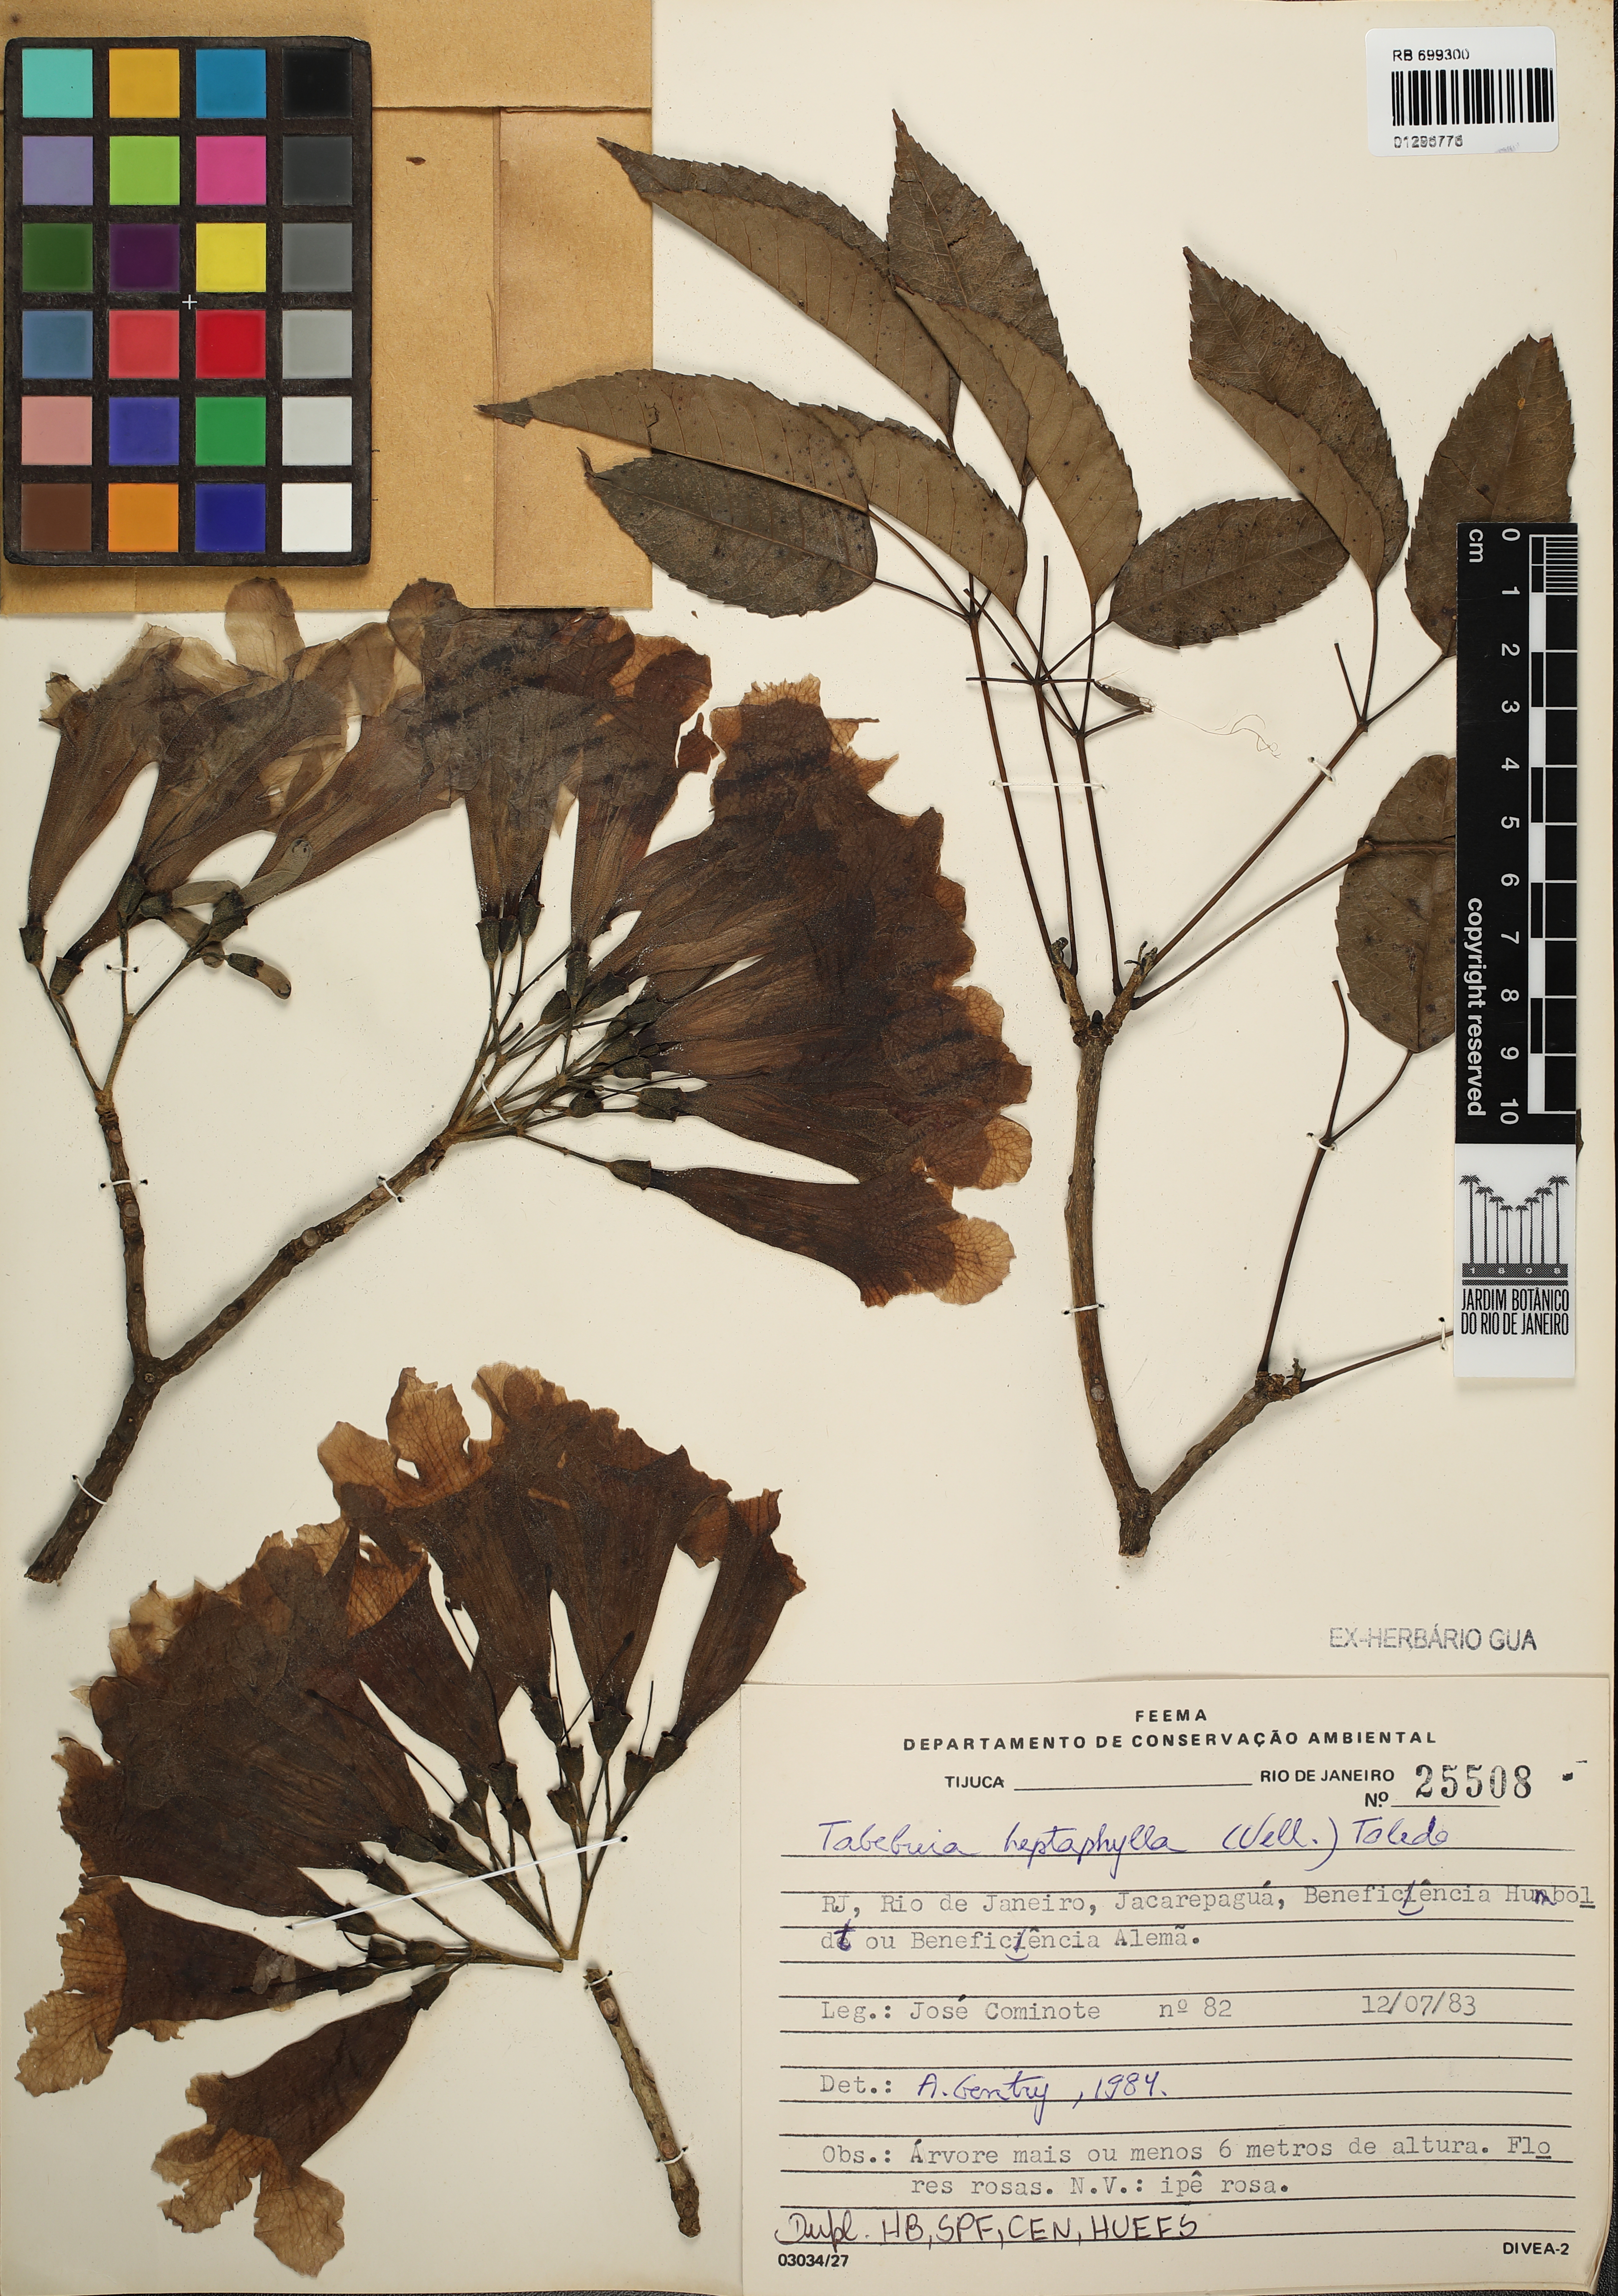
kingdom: Plantae
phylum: Tracheophyta
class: Magnoliopsida
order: Lamiales
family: Bignoniaceae
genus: Handroanthus
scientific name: Handroanthus heptaphyllus
